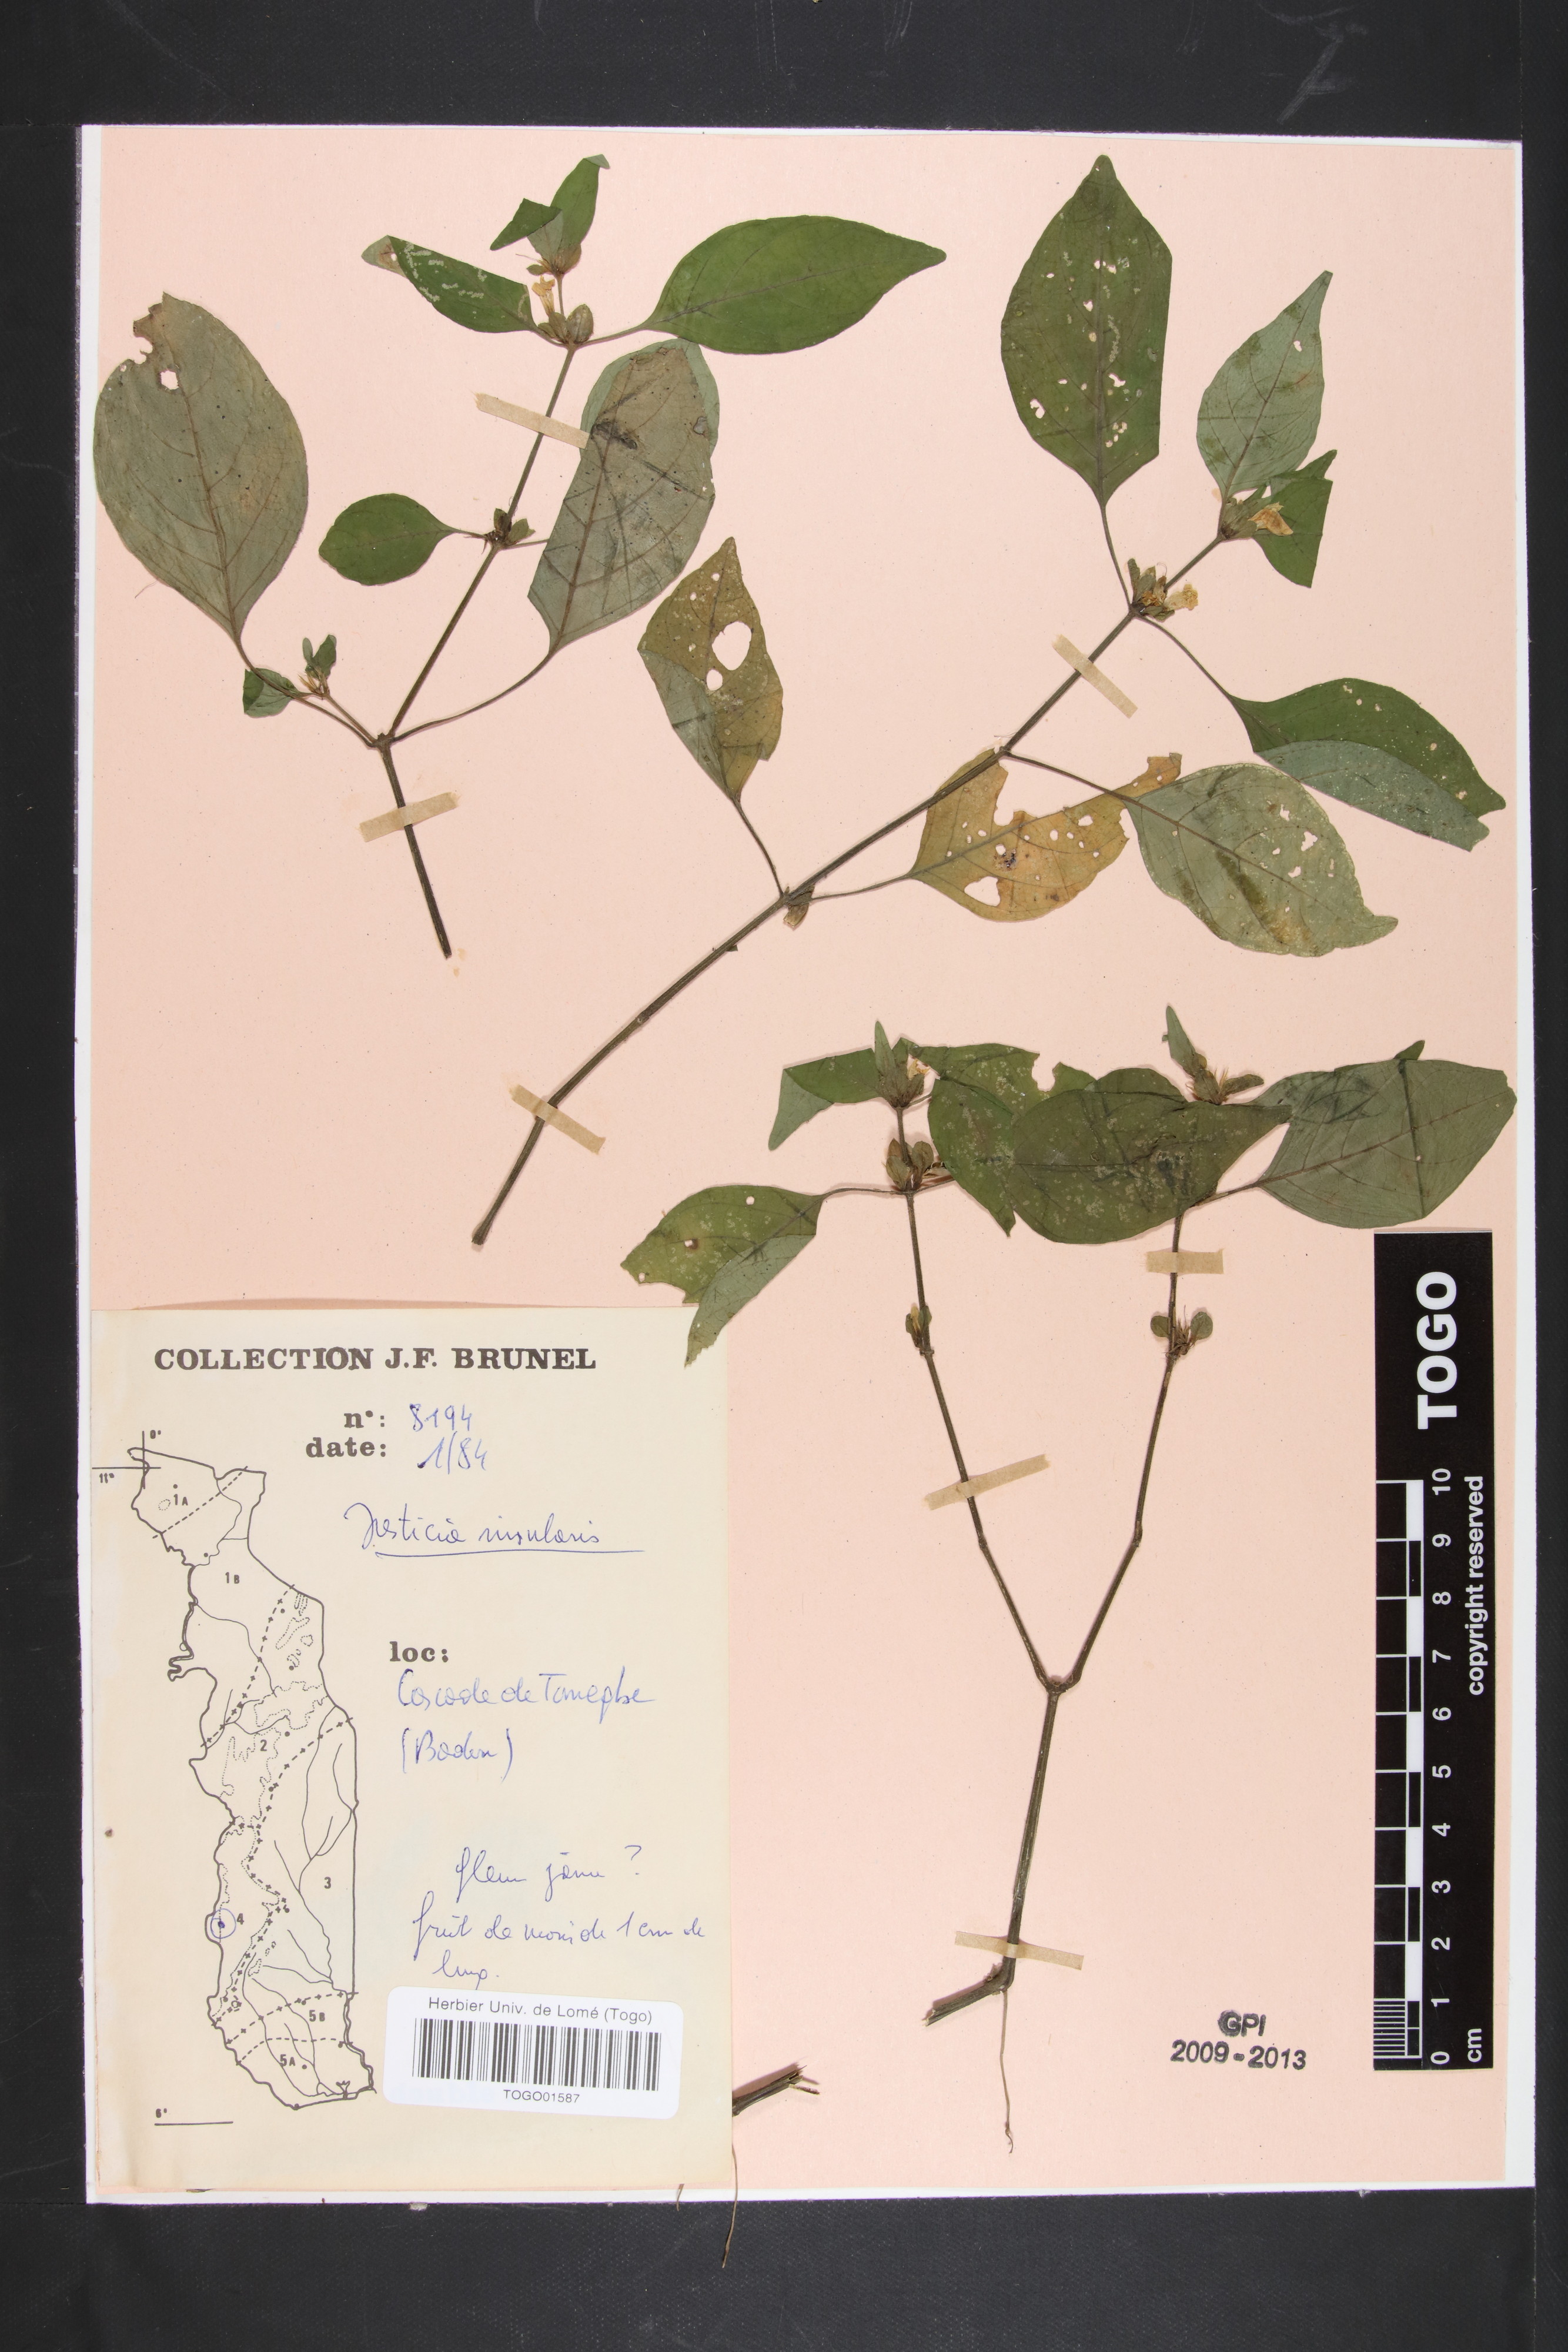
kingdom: Plantae
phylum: Tracheophyta
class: Magnoliopsida
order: Lamiales
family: Acanthaceae
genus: Justicia
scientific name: Justicia insularis
